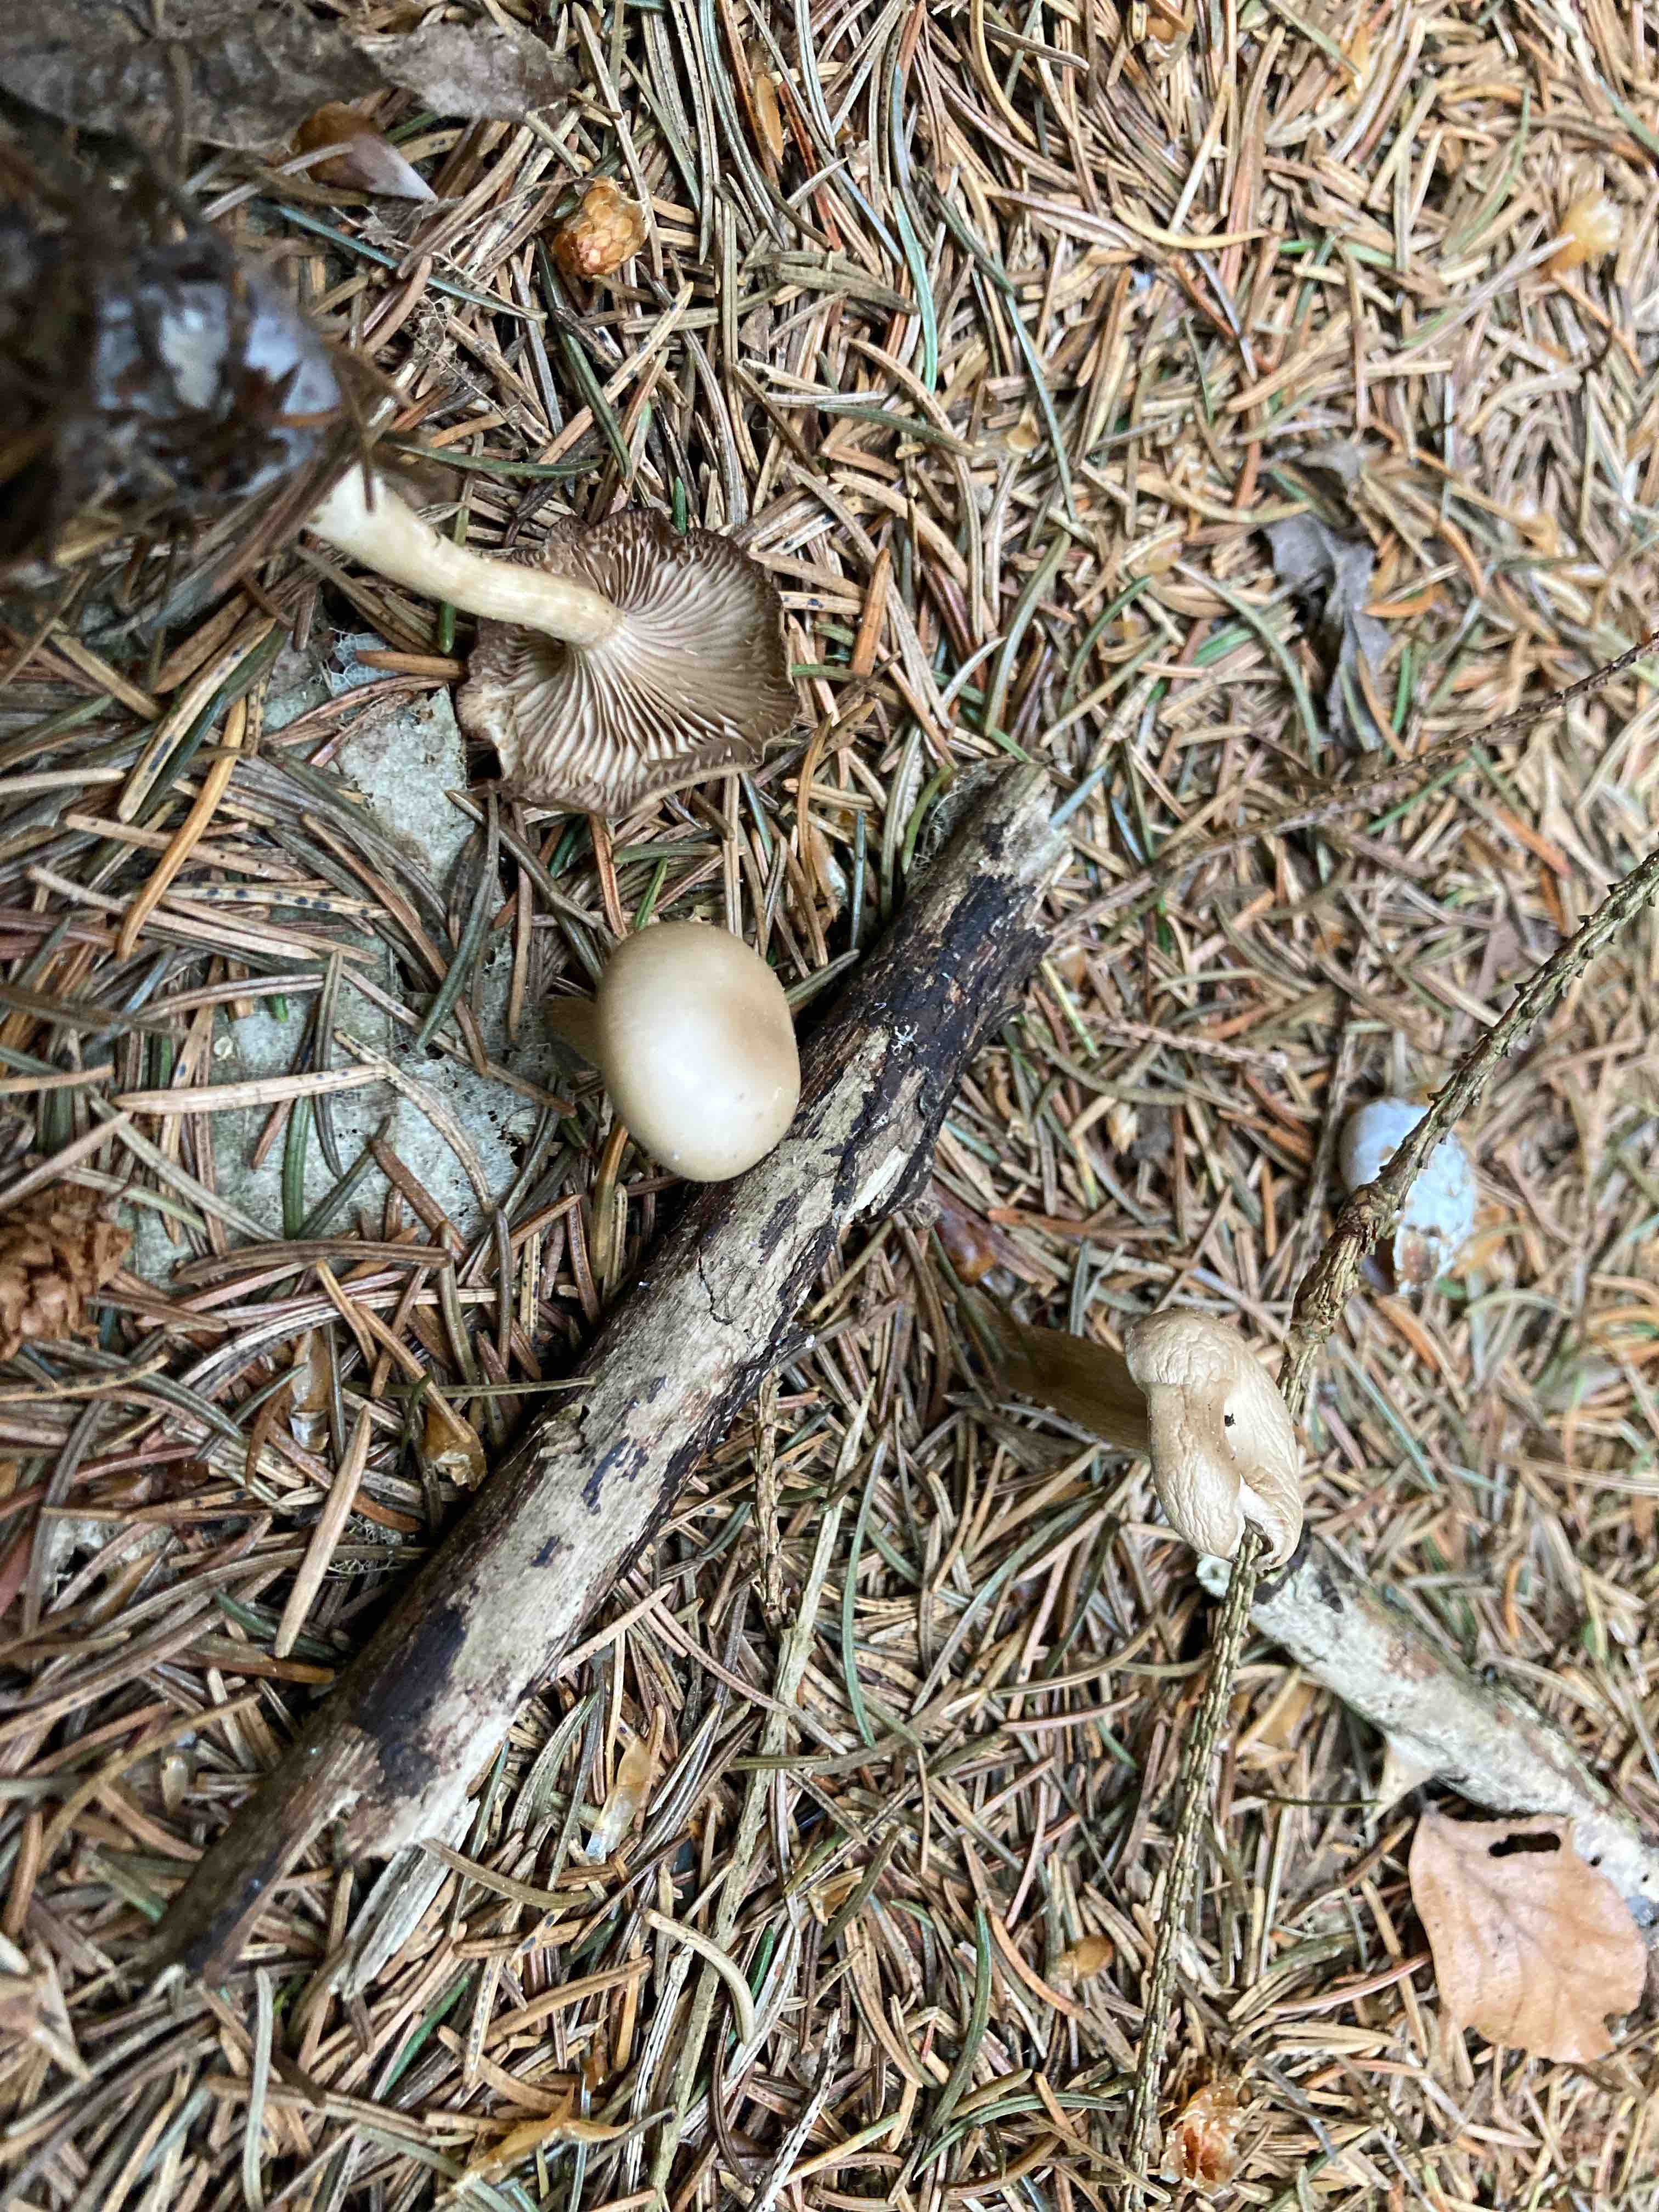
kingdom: Fungi
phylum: Basidiomycota
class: Agaricomycetes
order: Agaricales
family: Tricholomataceae
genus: Clitocybe
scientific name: Clitocybe
